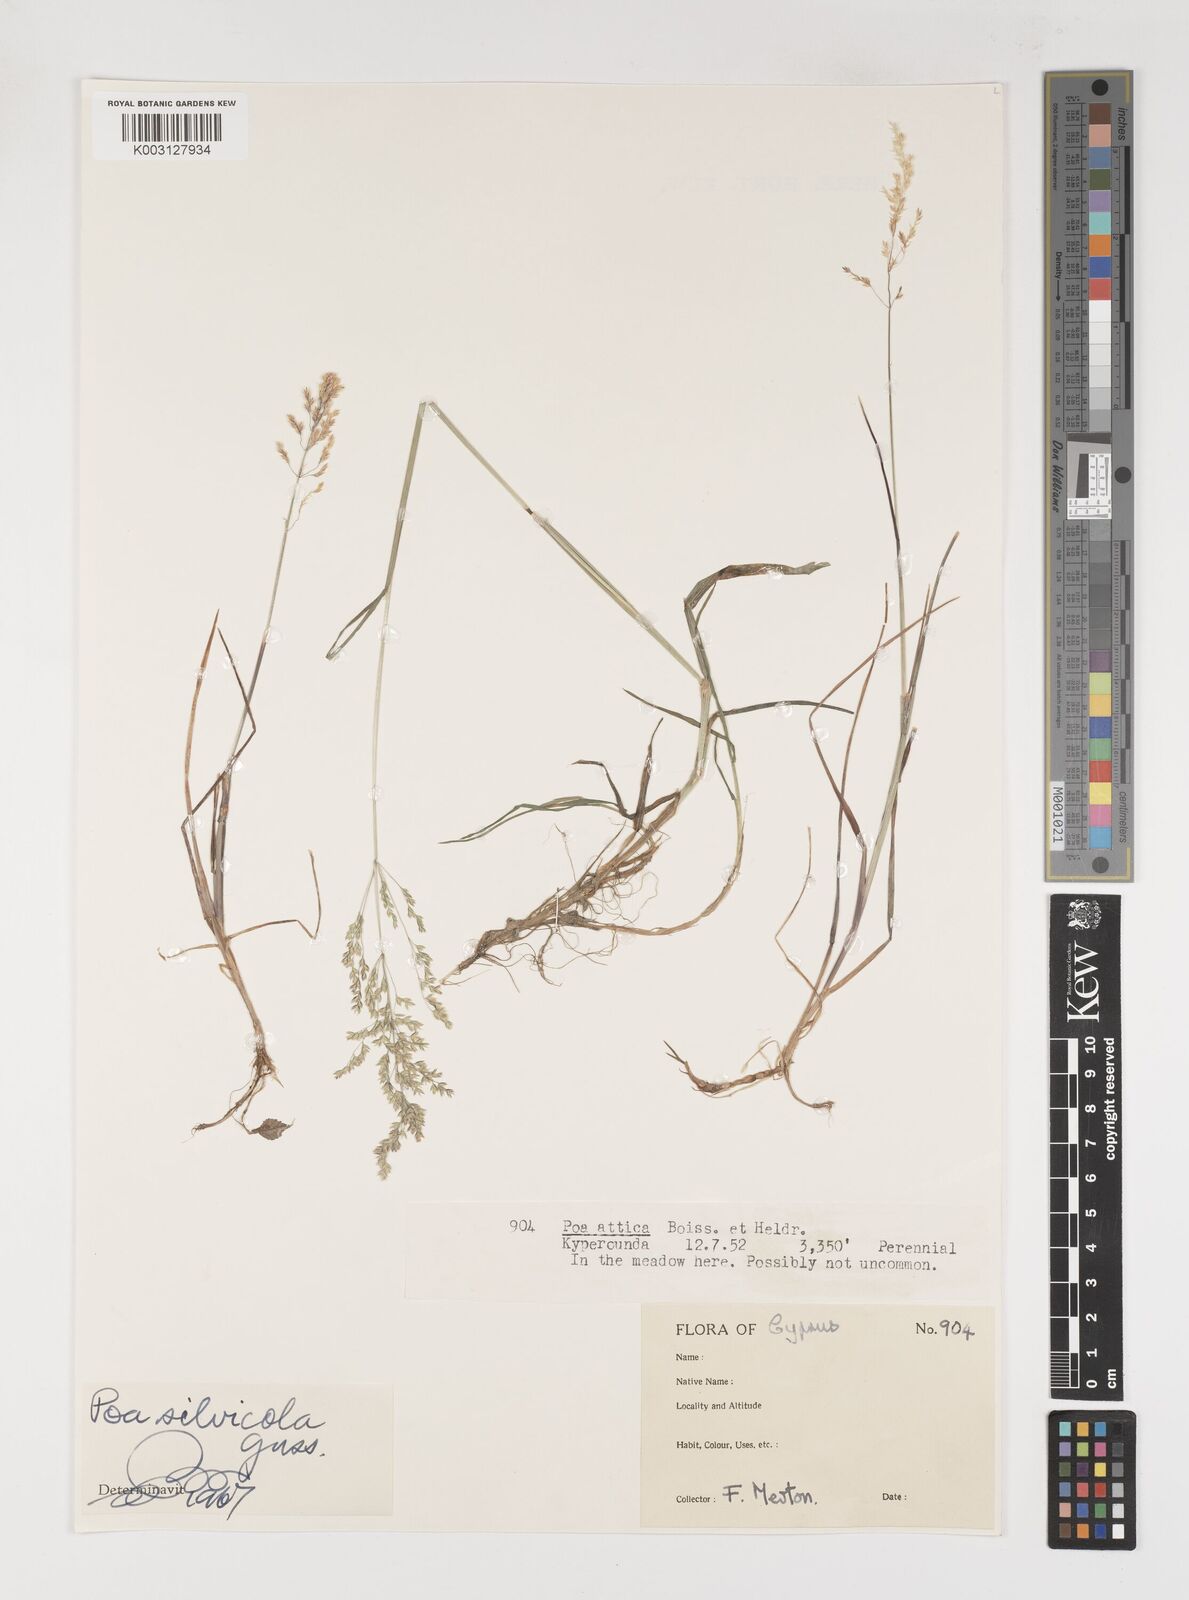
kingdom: Plantae
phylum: Tracheophyta
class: Liliopsida
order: Poales
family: Poaceae
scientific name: Poaceae
